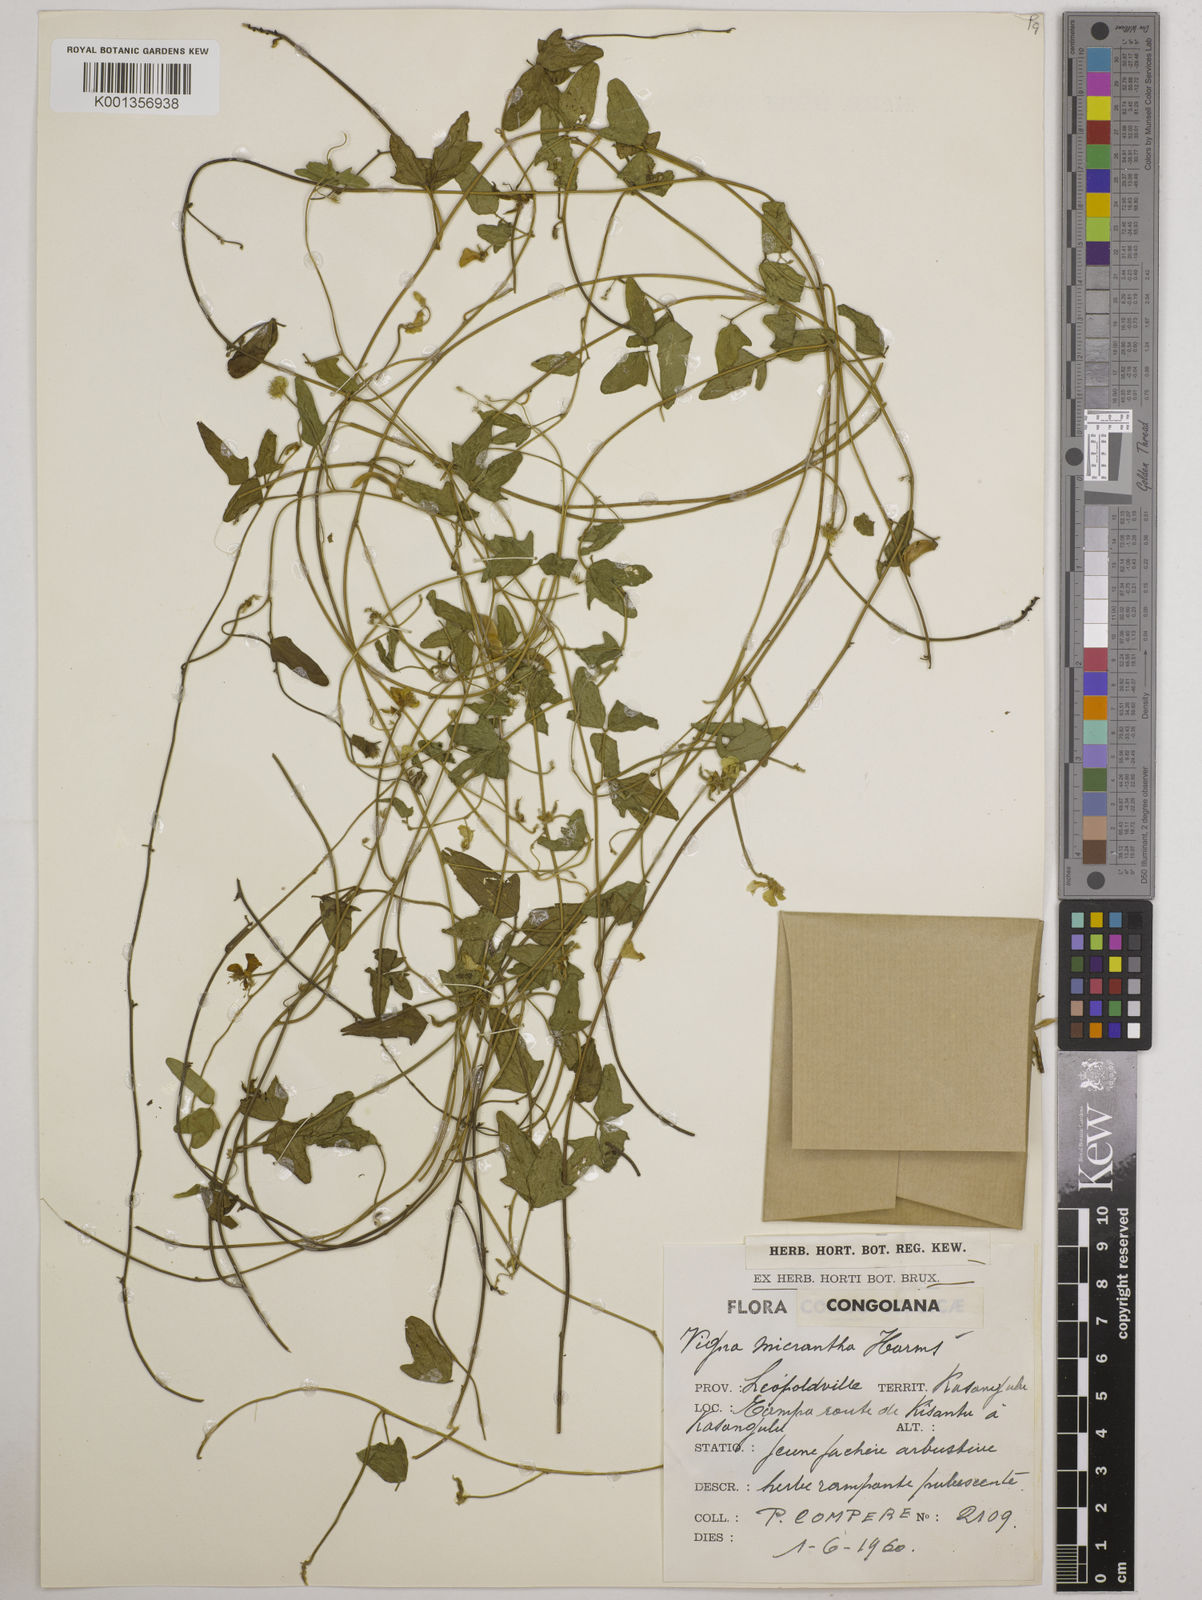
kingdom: Plantae
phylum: Tracheophyta
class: Magnoliopsida
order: Fabales
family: Fabaceae
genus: Vigna
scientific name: Vigna comosa
